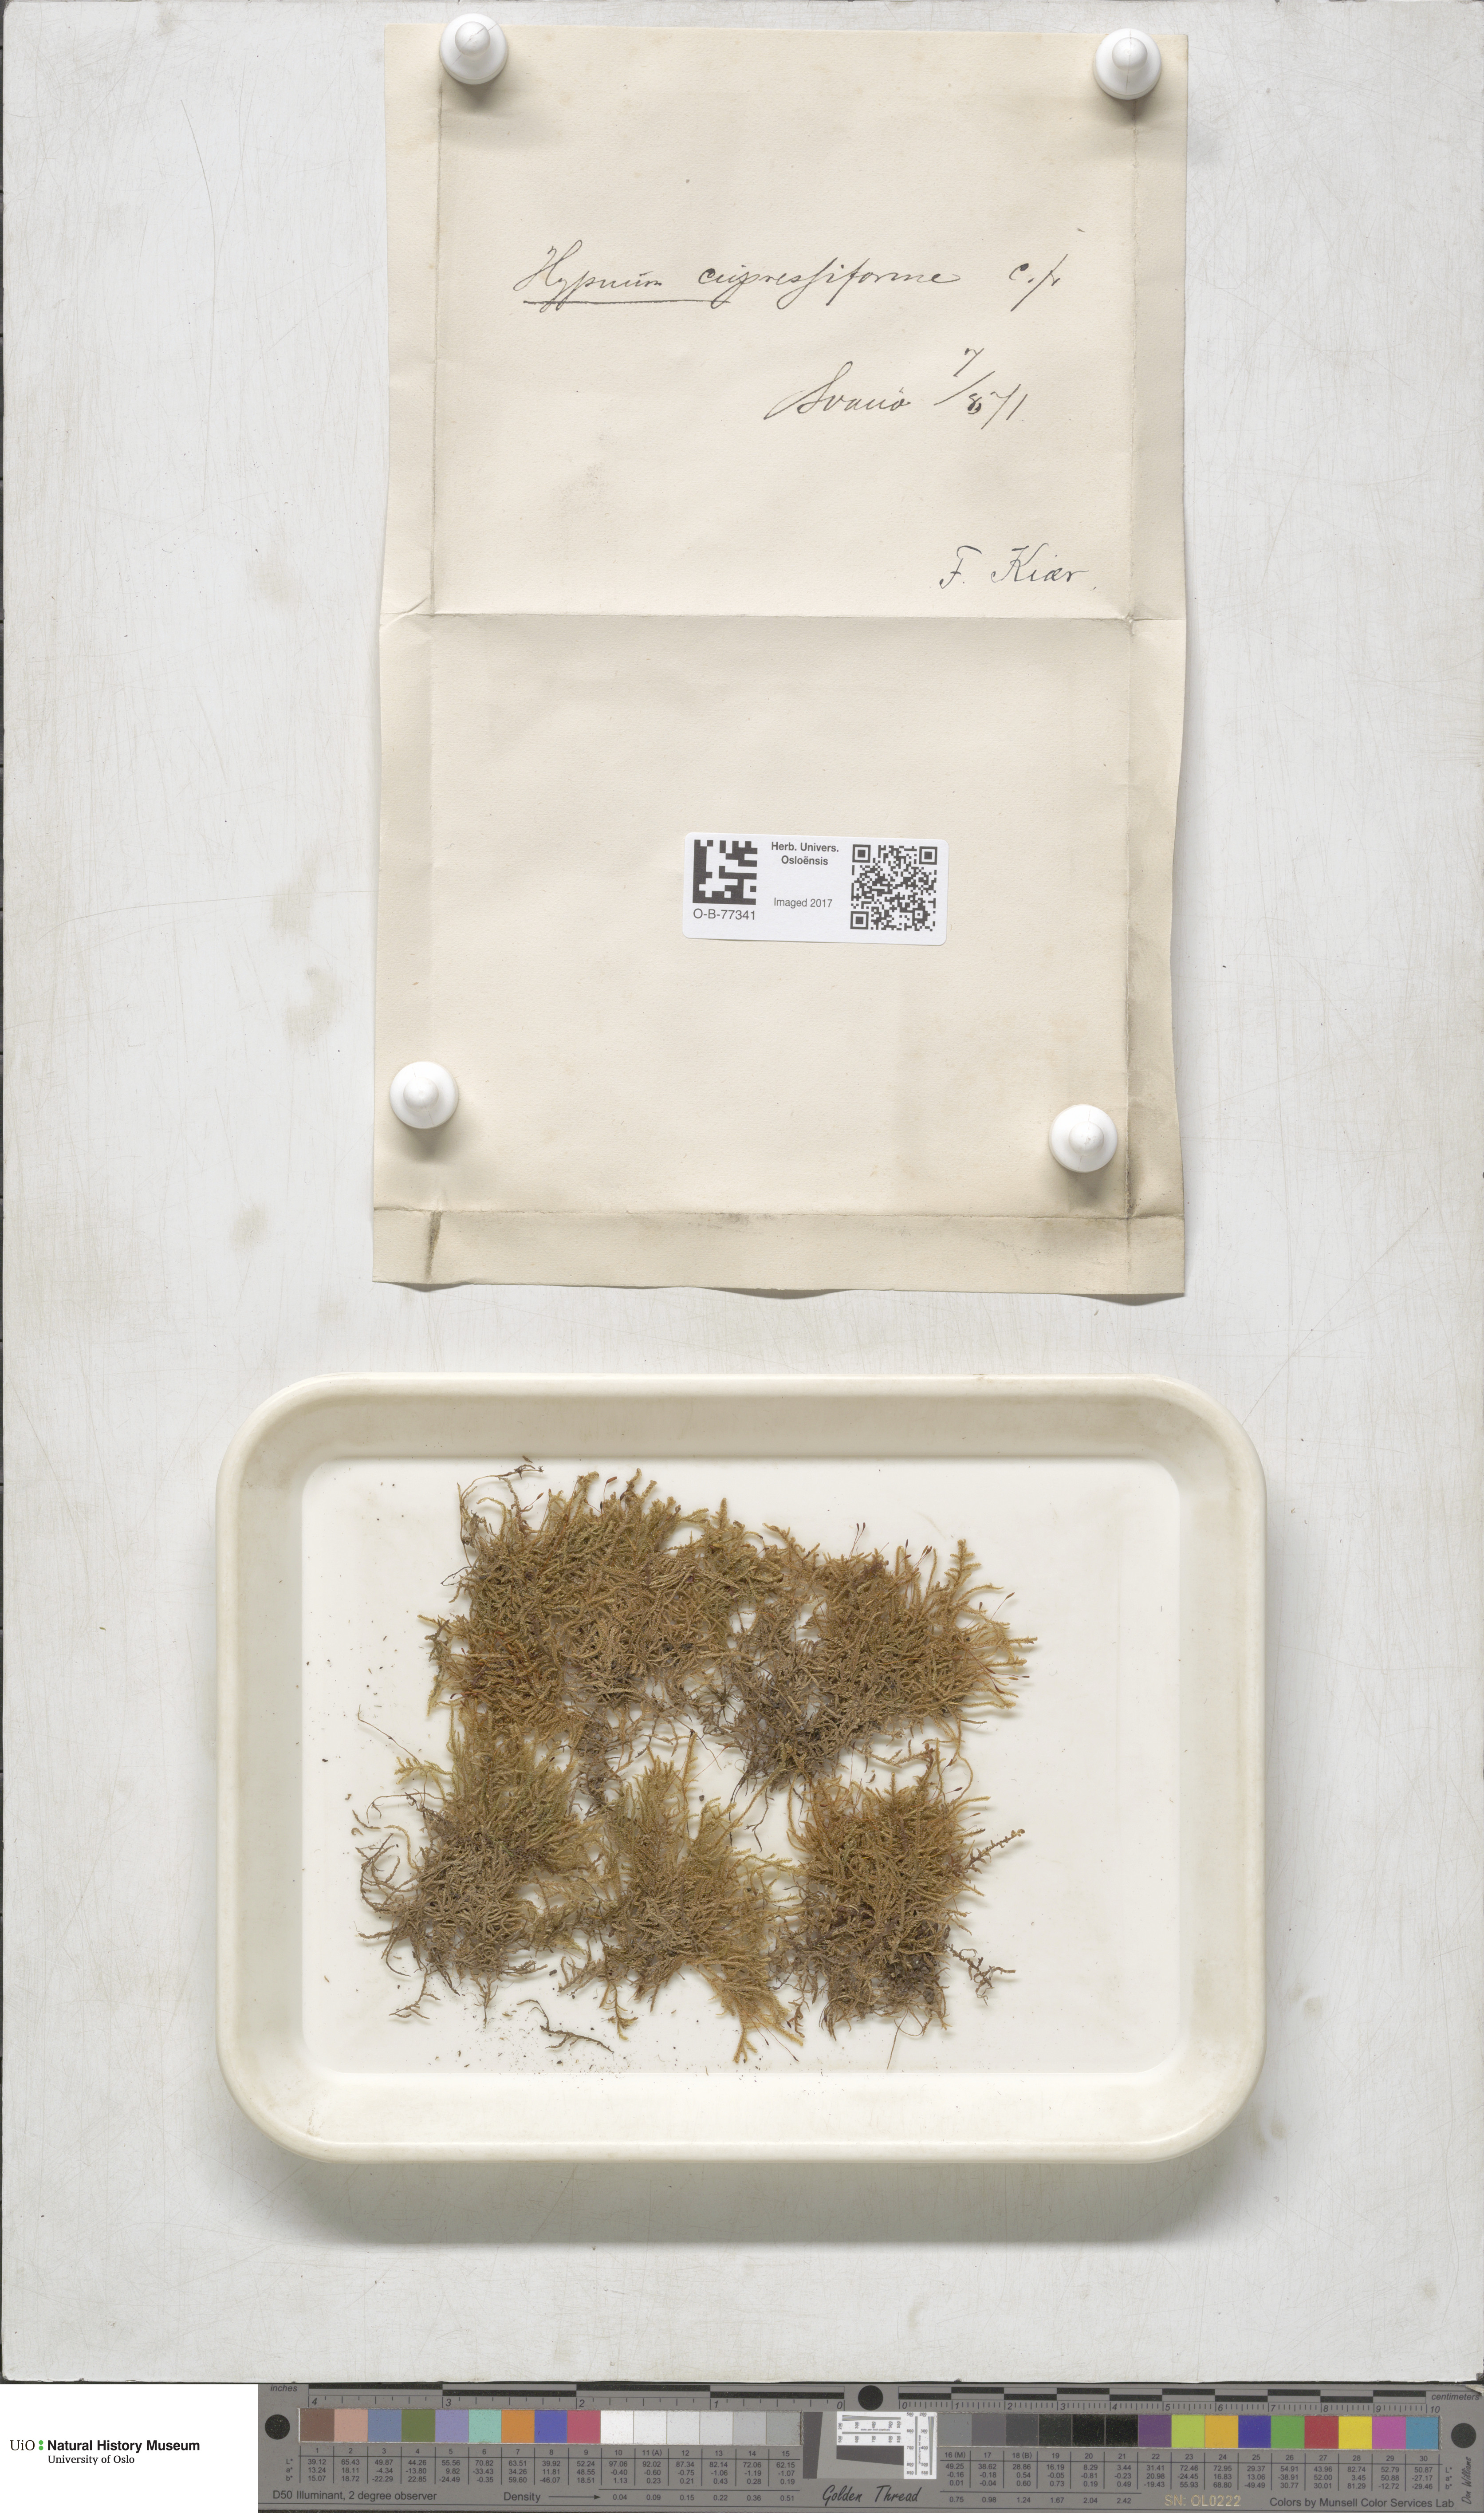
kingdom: Plantae
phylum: Bryophyta
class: Bryopsida
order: Hypnales
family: Hypnaceae
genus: Hypnum
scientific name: Hypnum cupressiforme
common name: Cypress-leaved plait-moss
